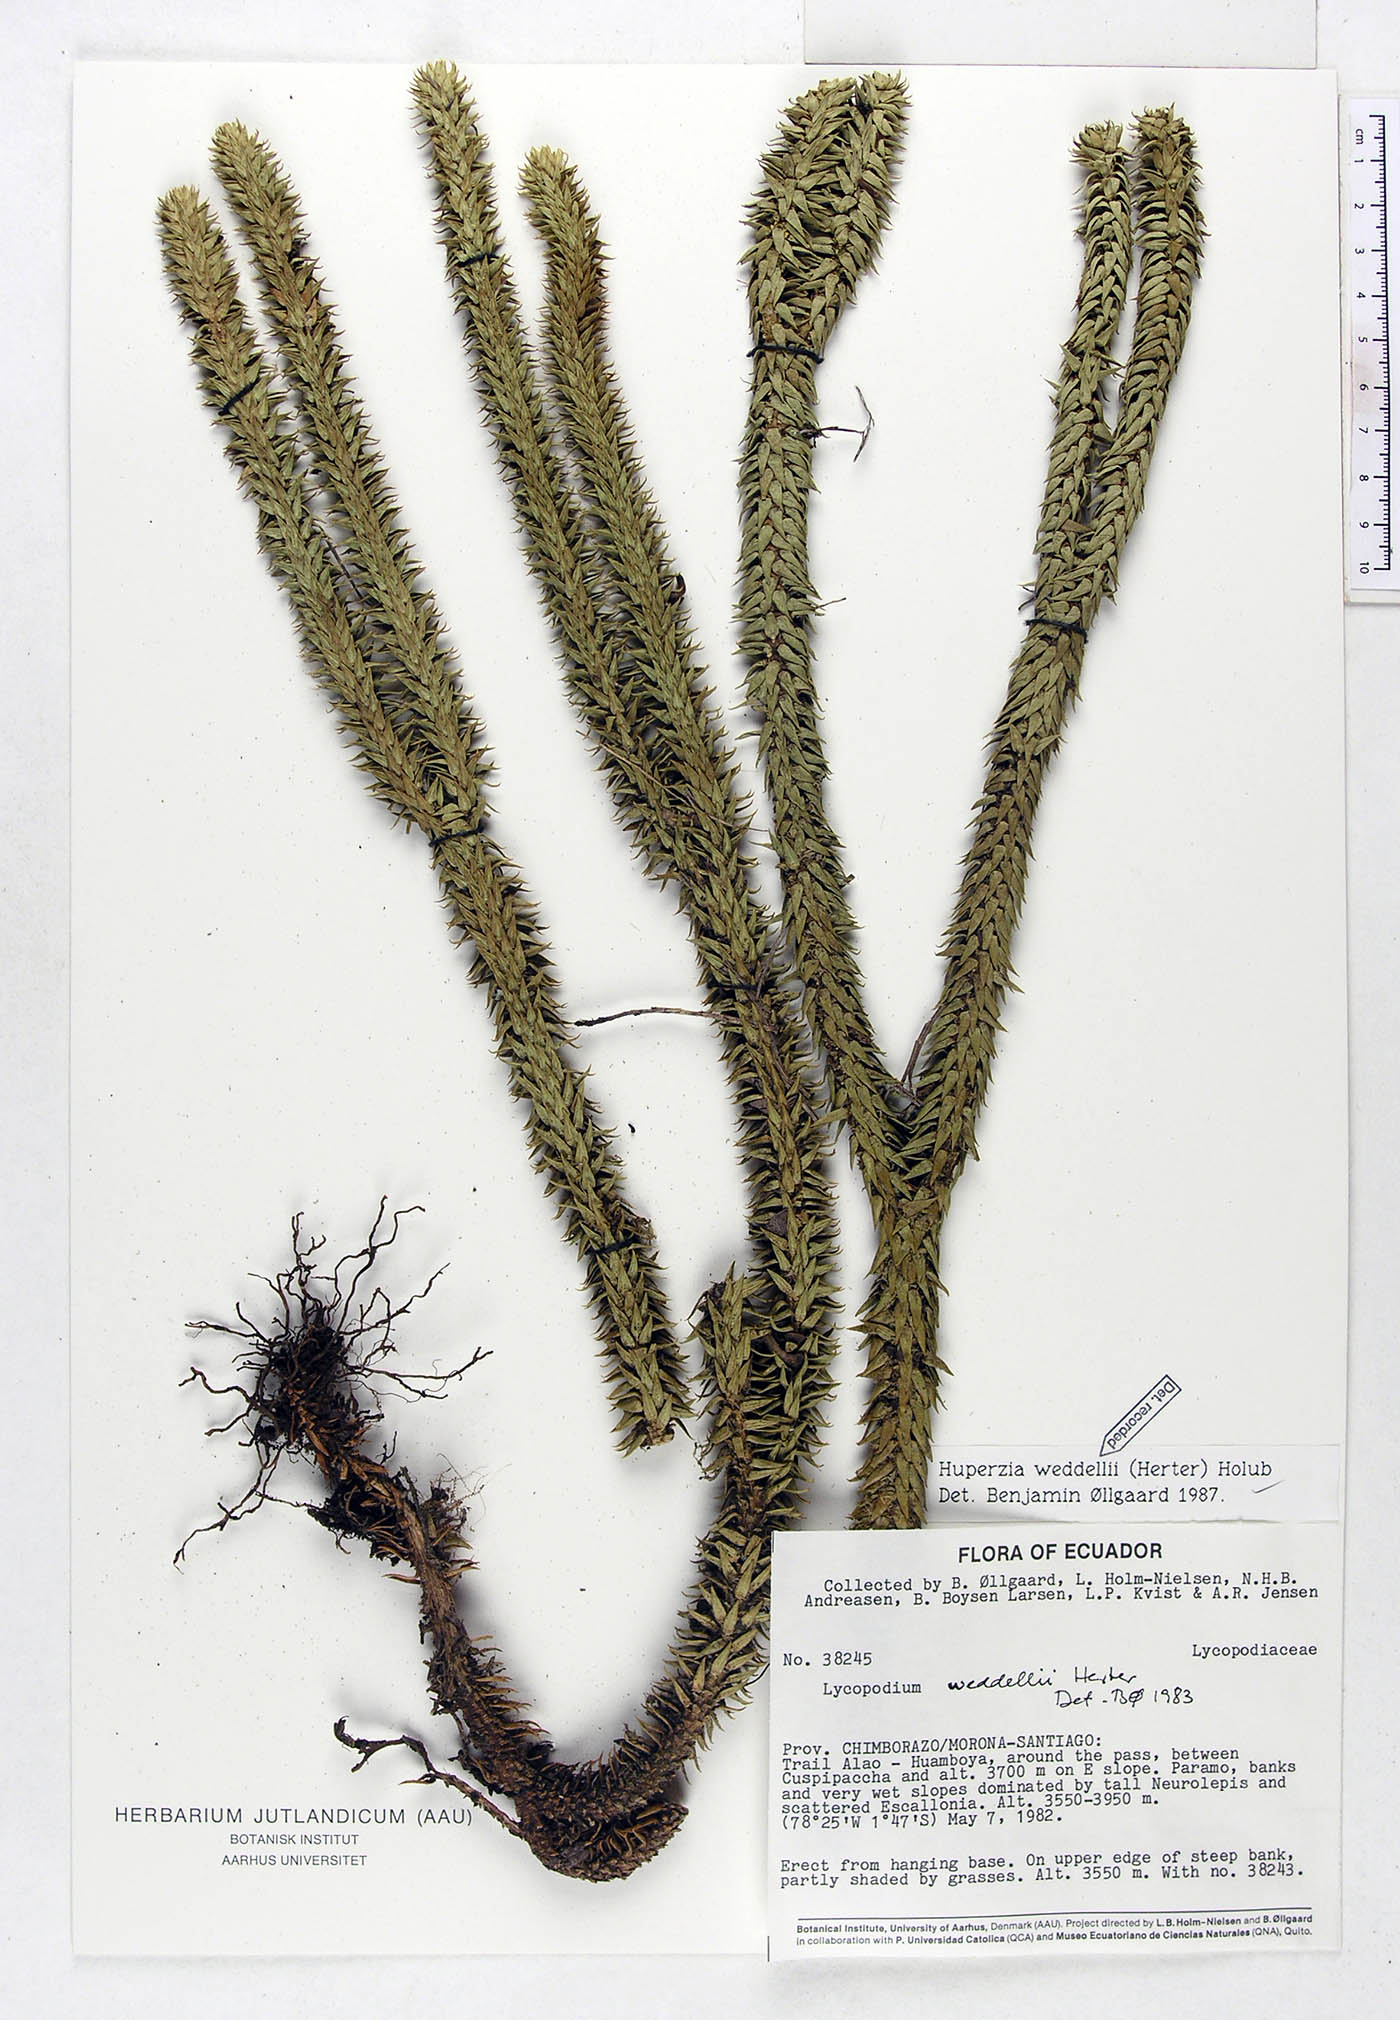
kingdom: Plantae
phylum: Tracheophyta
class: Lycopodiopsida
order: Lycopodiales
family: Lycopodiaceae
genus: Phlegmariurus
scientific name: Phlegmariurus weddellii
